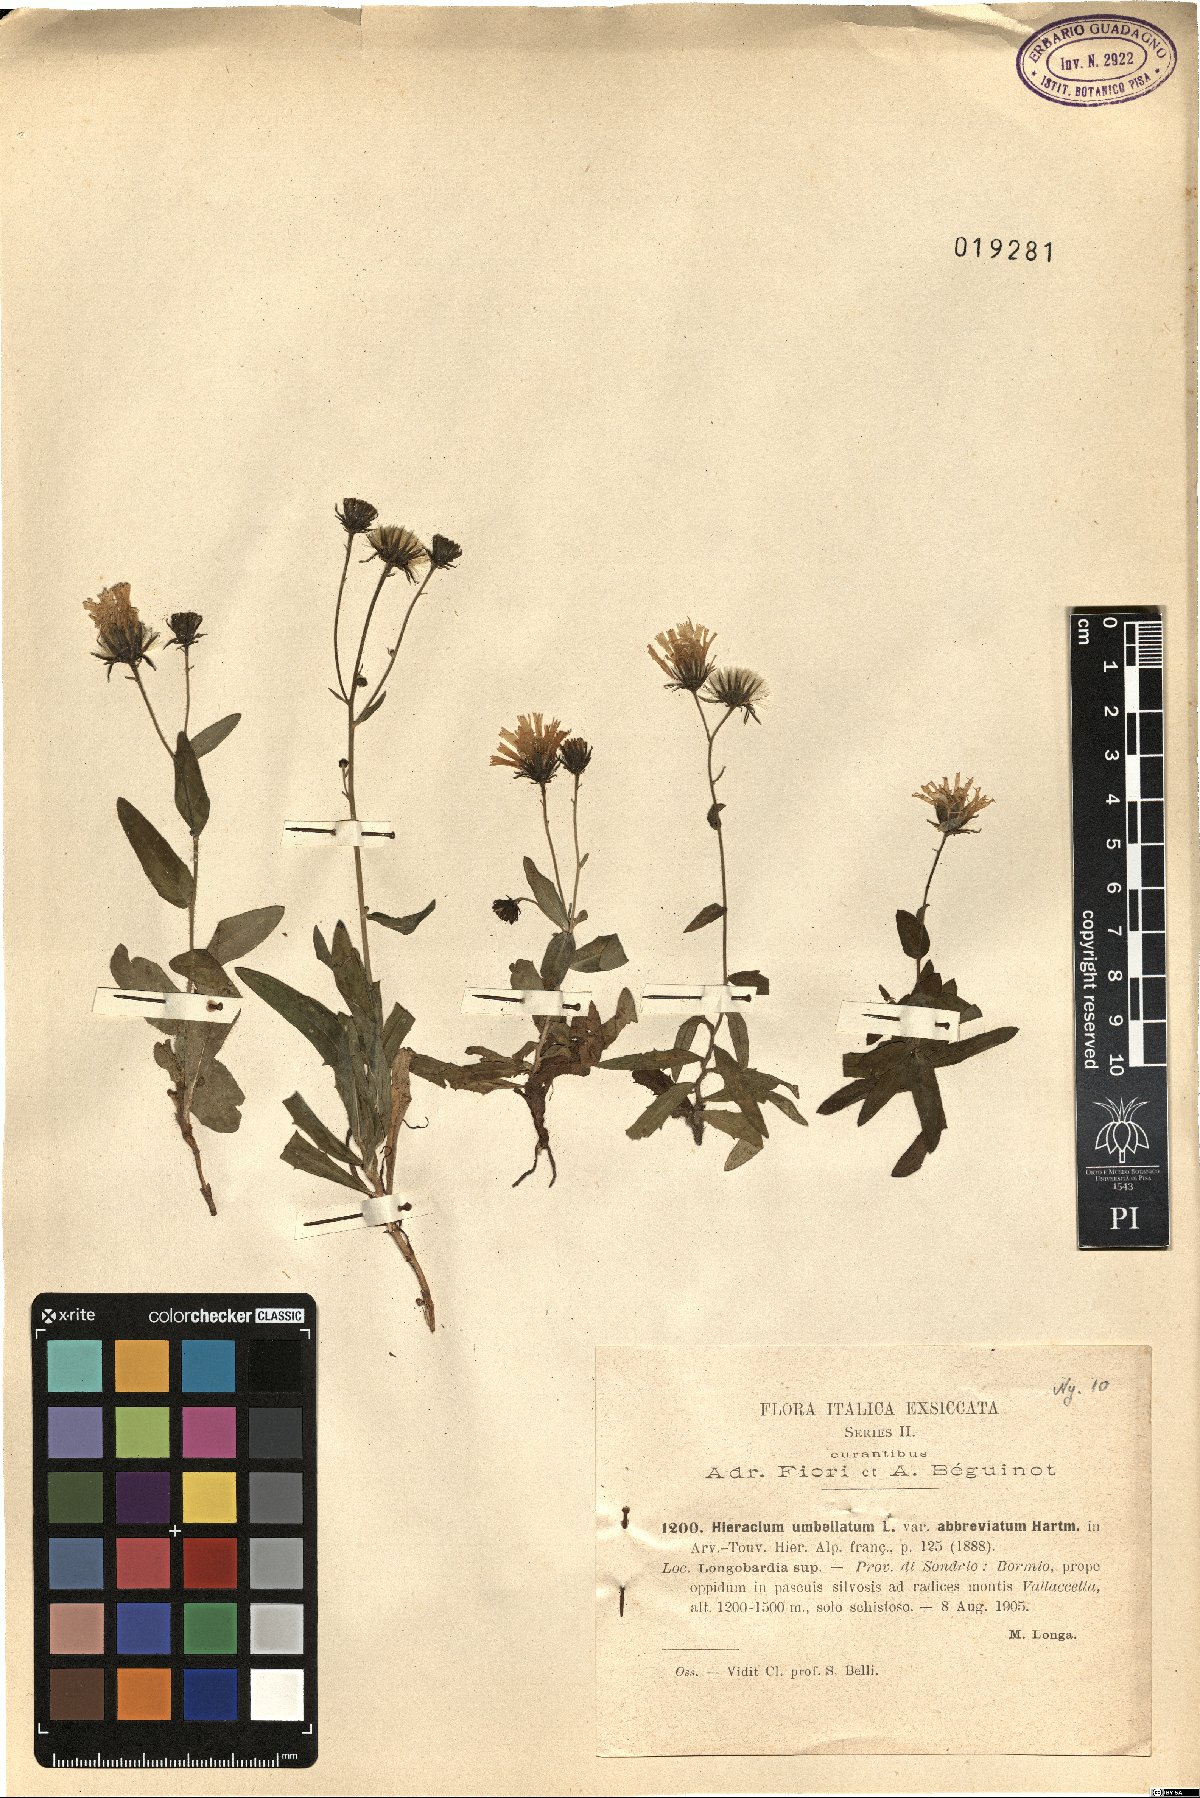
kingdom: Plantae
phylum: Tracheophyta
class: Magnoliopsida
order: Asterales
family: Asteraceae
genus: Hieracium
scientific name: Hieracium umbellatum
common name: Northern hawkweed
